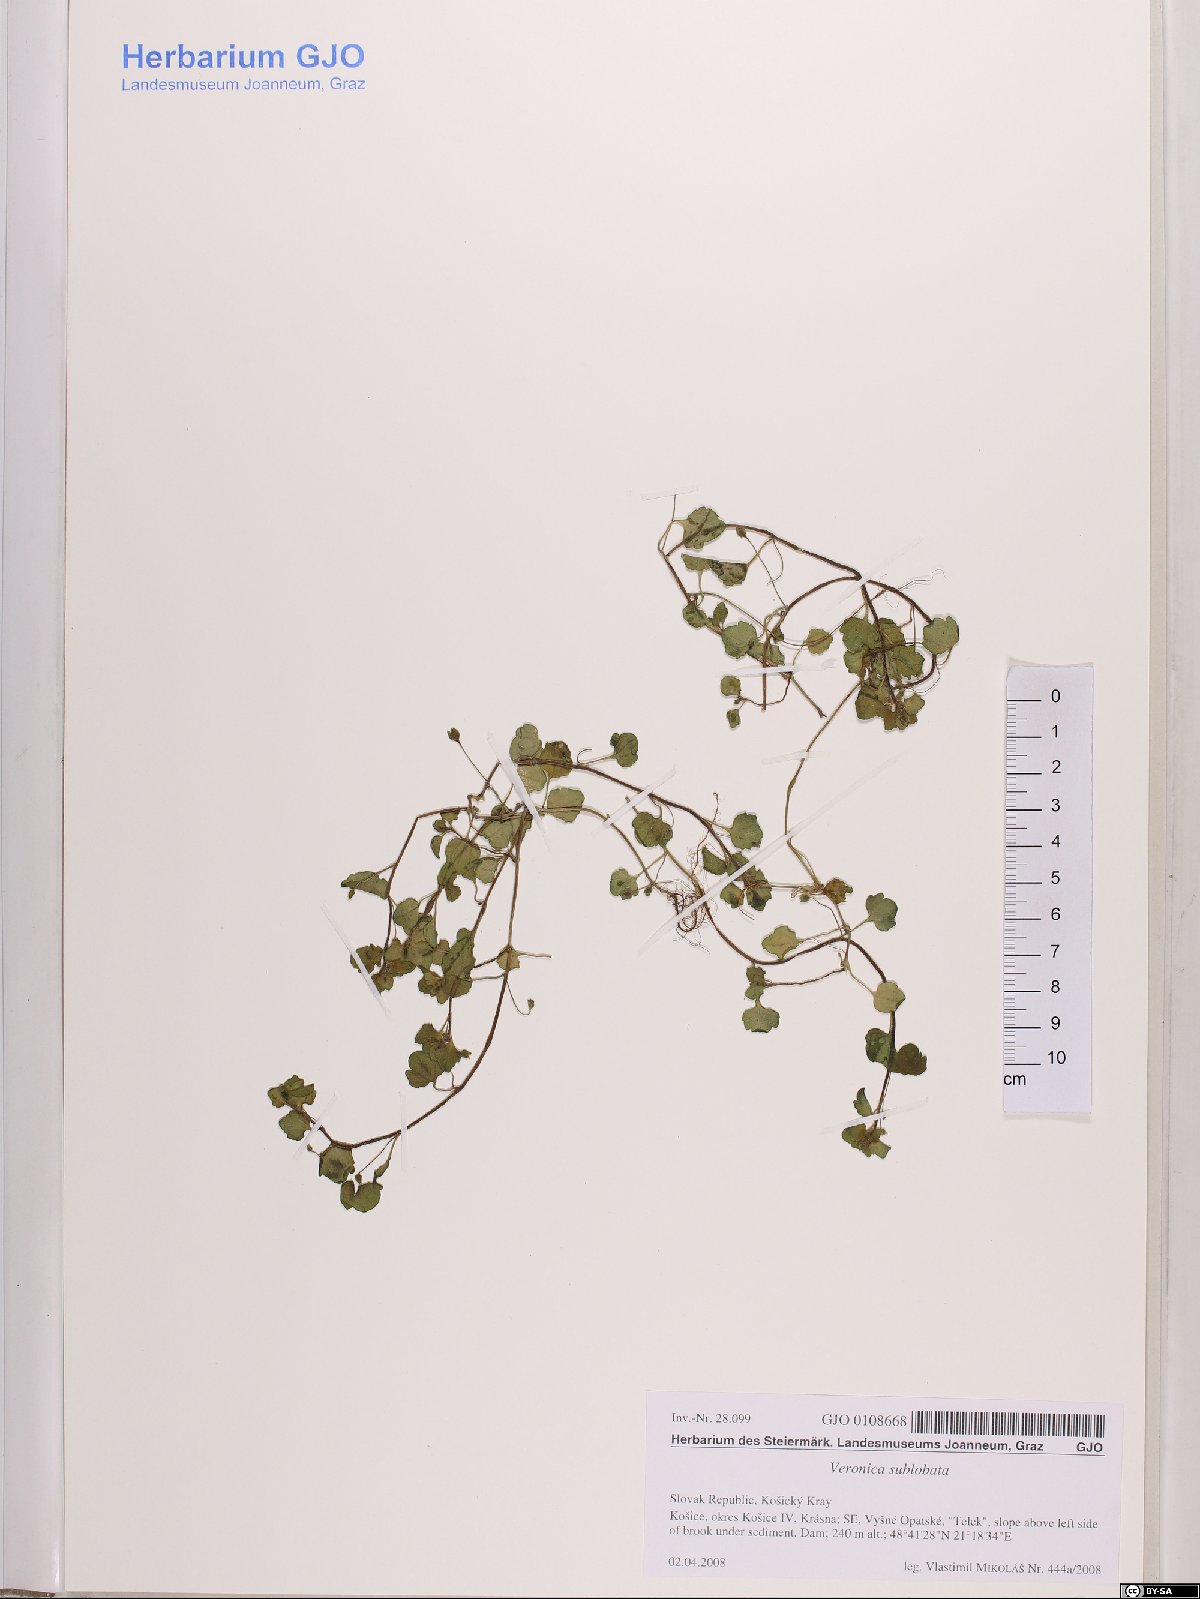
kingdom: Plantae
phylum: Tracheophyta
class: Magnoliopsida
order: Lamiales
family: Plantaginaceae
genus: Veronica
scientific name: Veronica sublobata
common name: False ivy-leaved speedwell
